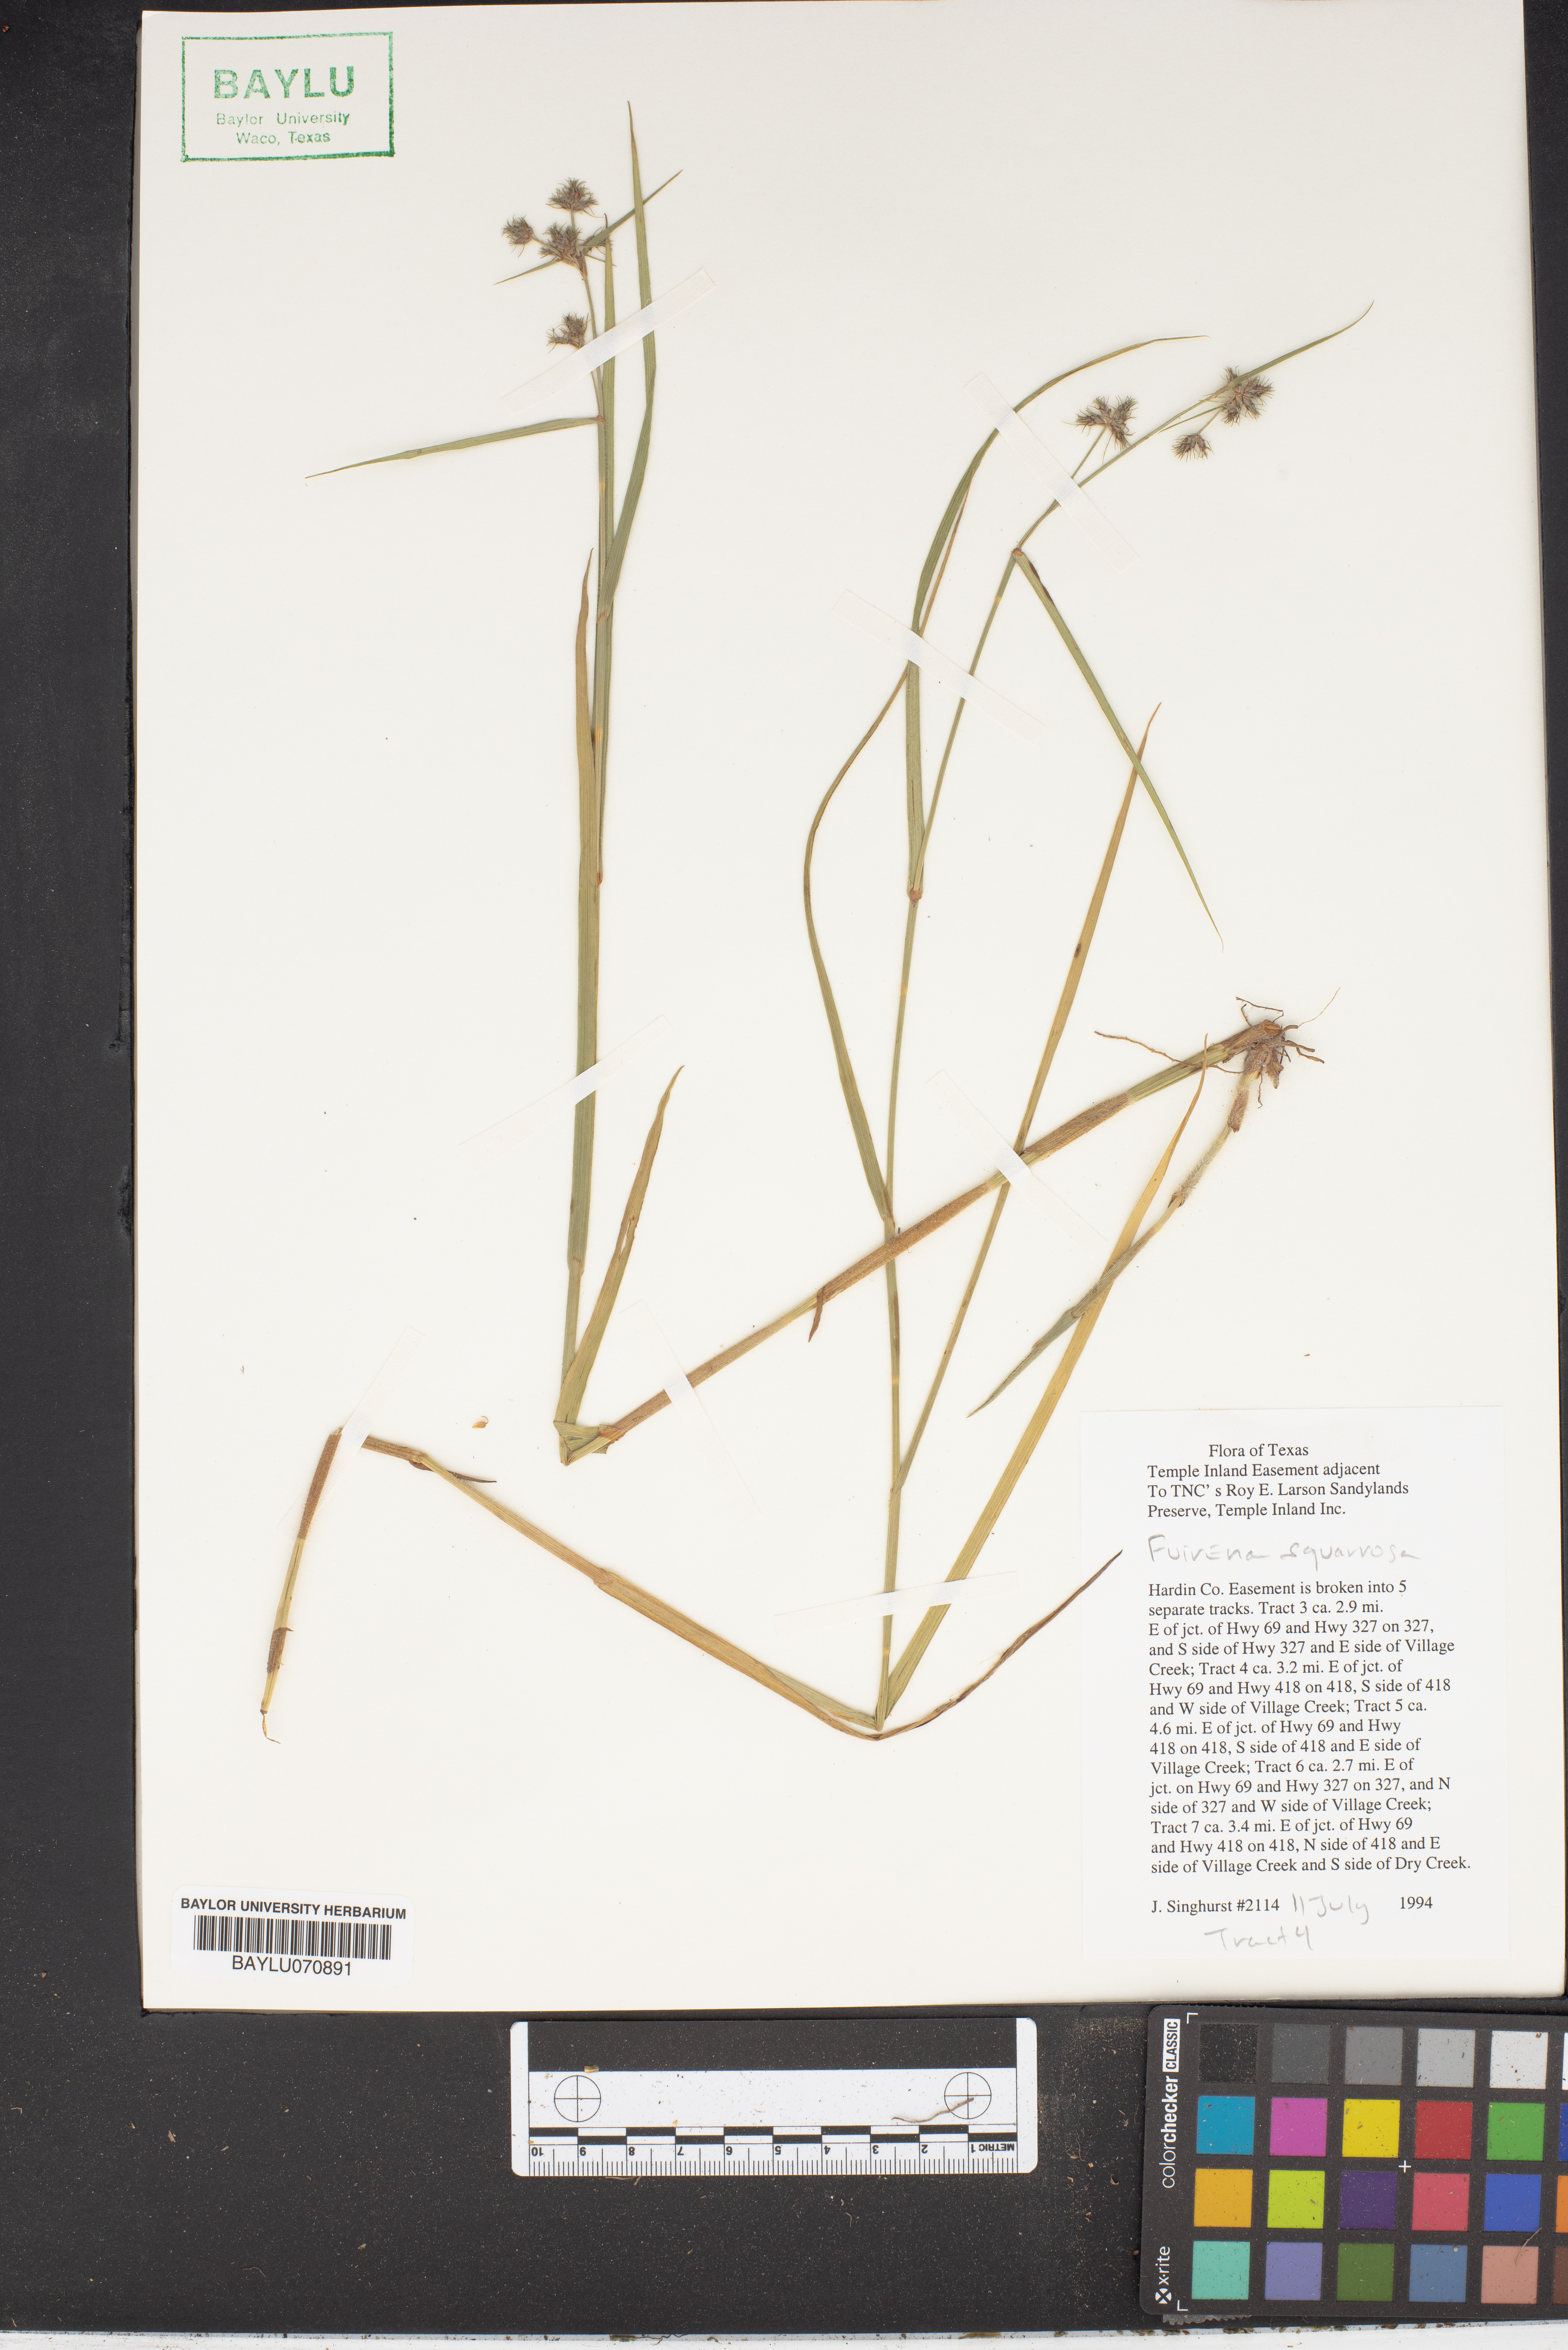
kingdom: Plantae
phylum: Tracheophyta
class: Liliopsida
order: Poales
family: Cyperaceae
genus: Fuirena
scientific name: Fuirena squarrosa
